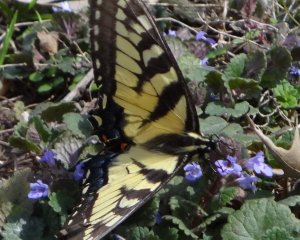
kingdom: Animalia
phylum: Arthropoda
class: Insecta
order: Lepidoptera
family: Papilionidae
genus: Pterourus
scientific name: Pterourus glaucus
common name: Eastern Tiger Swallowtail
